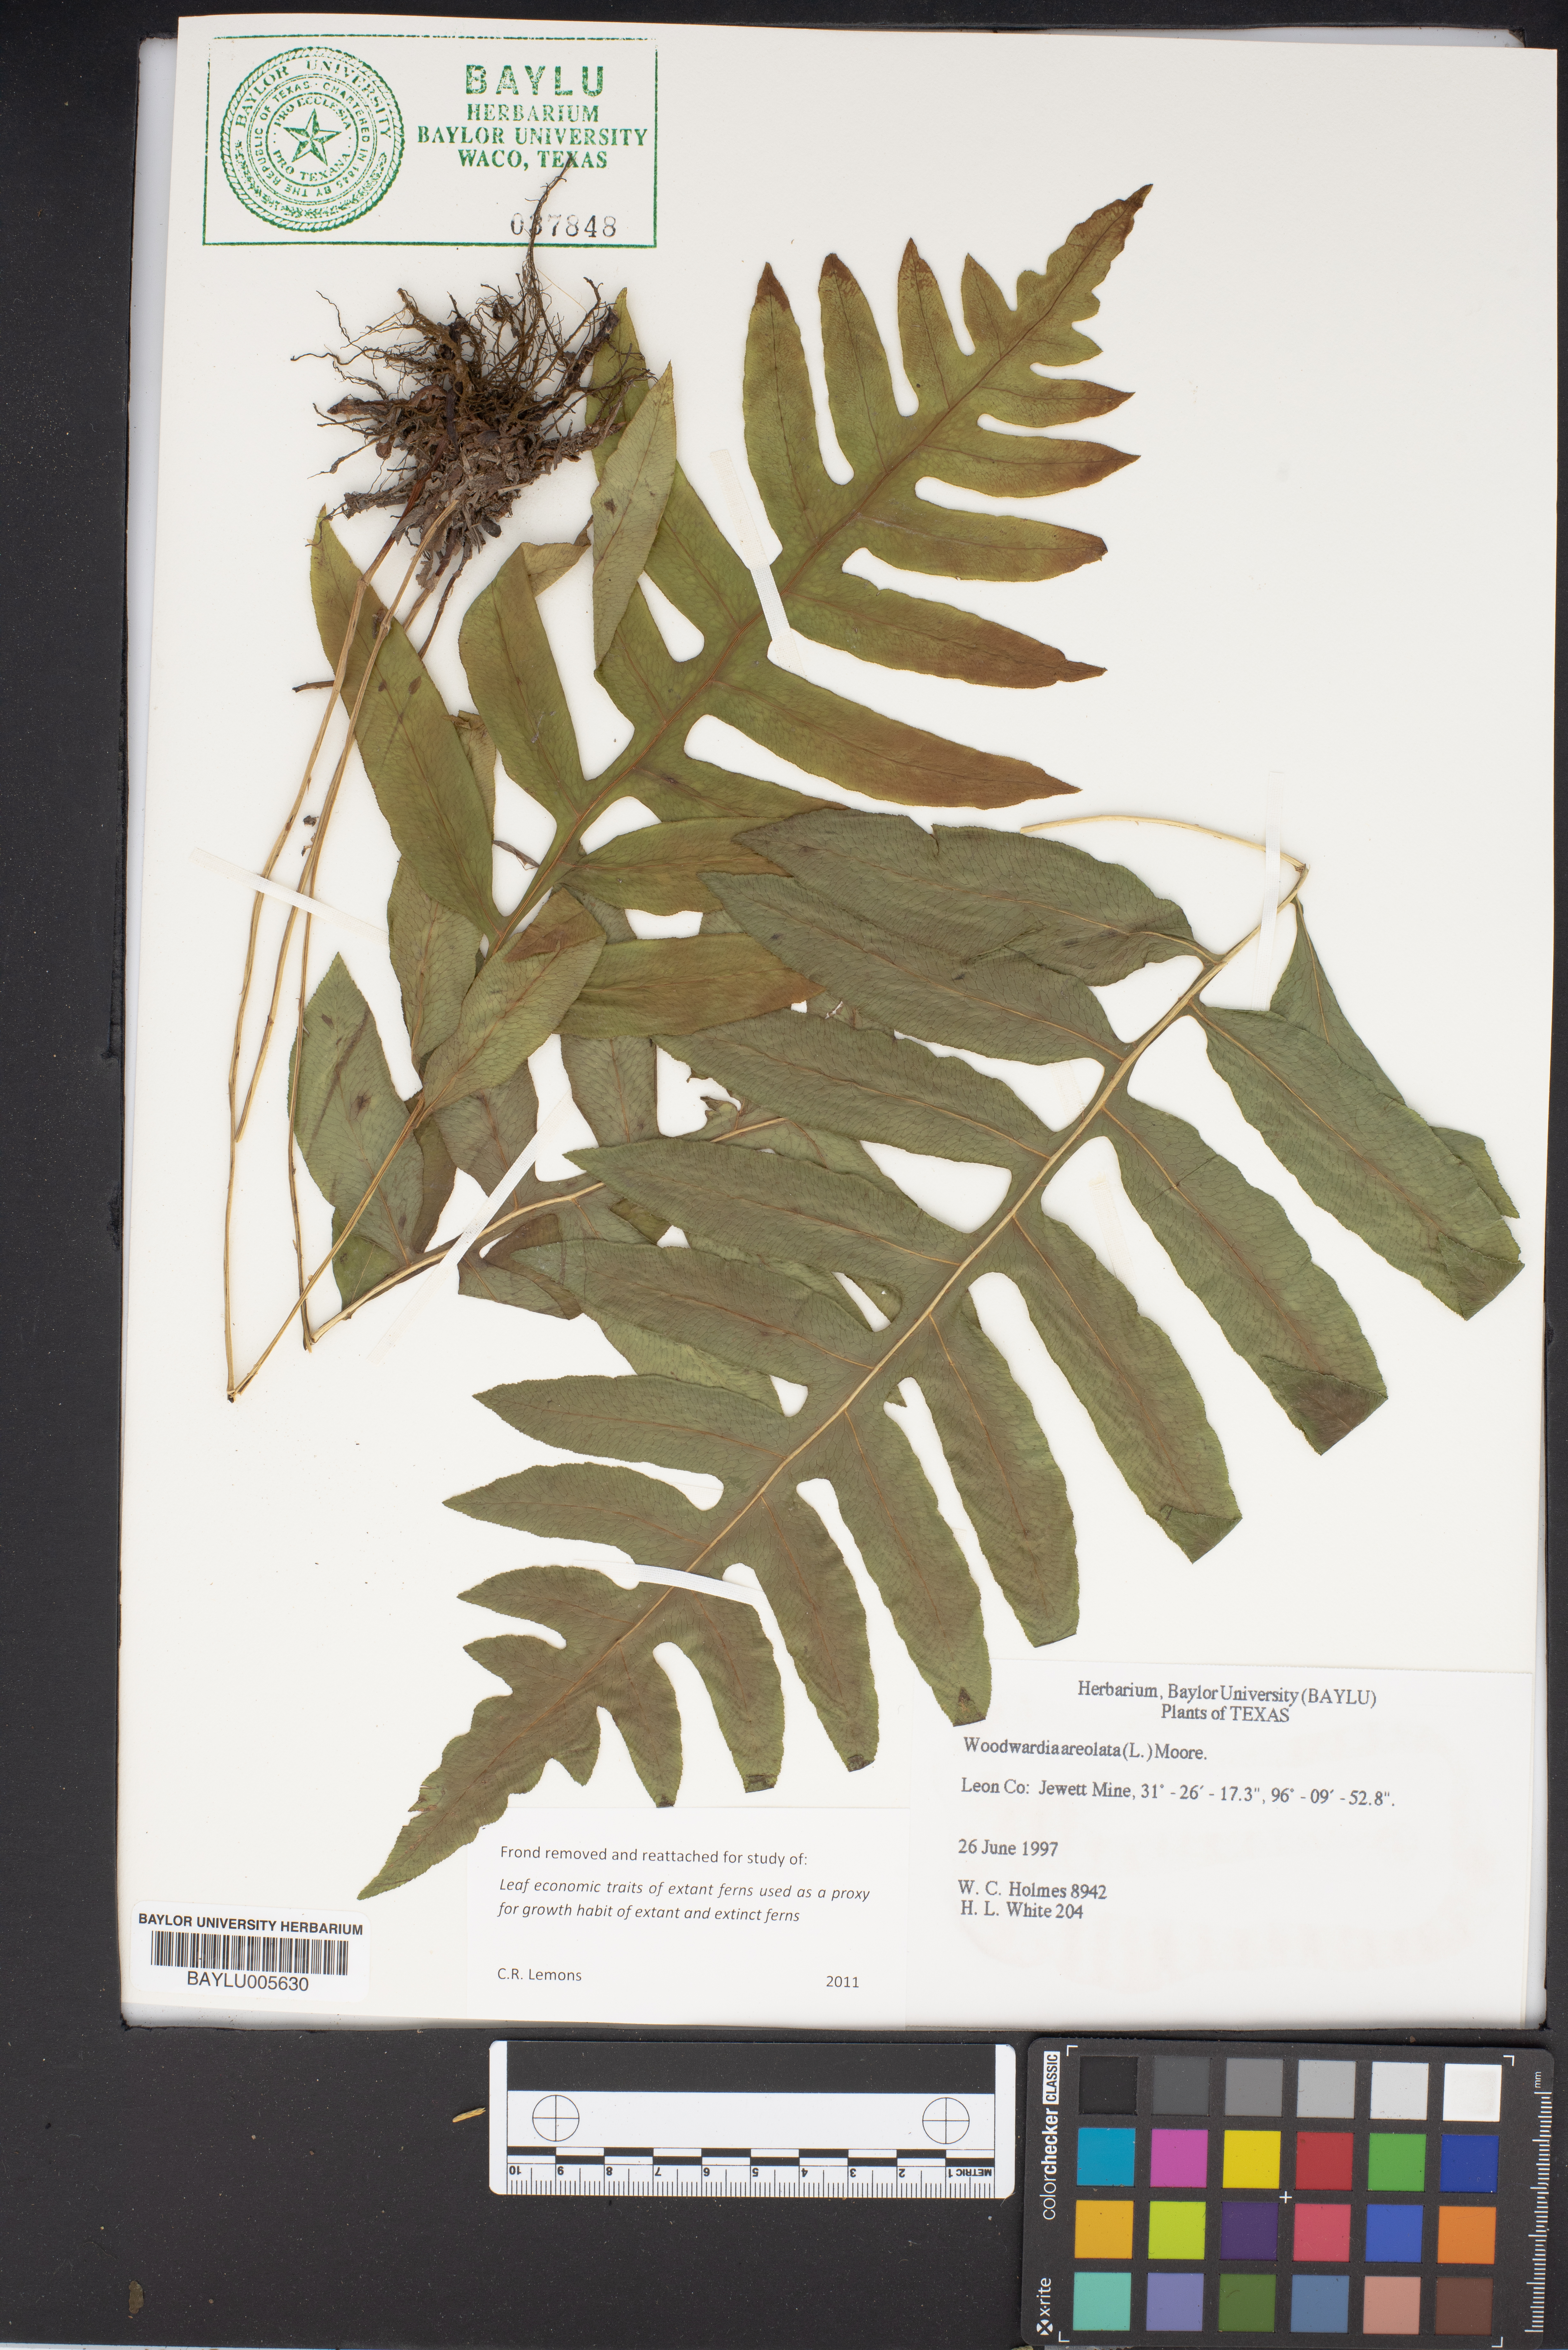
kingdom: Plantae
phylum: Tracheophyta
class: Polypodiopsida
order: Polypodiales
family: Blechnaceae
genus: Lorinseria
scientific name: Lorinseria areolata
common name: Dwarf chain fern
